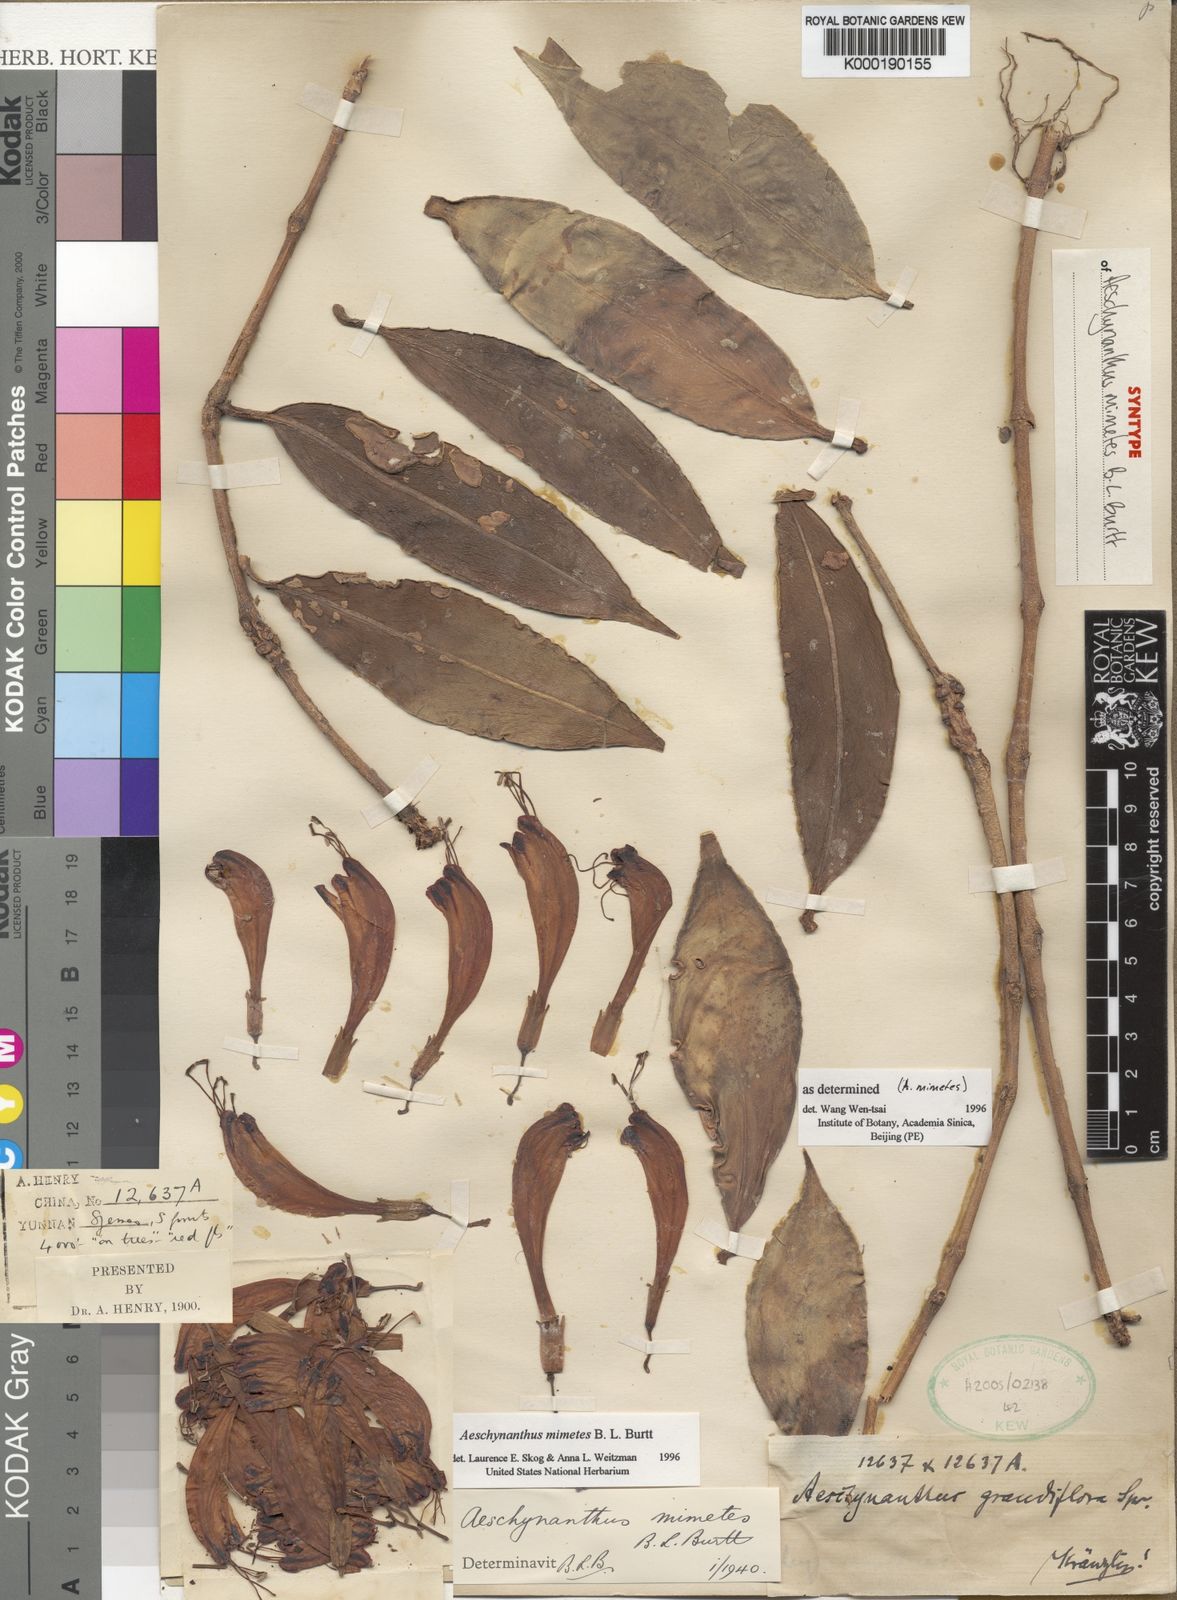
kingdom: Plantae
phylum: Tracheophyta
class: Magnoliopsida
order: Lamiales
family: Gesneriaceae
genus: Aeschynanthus
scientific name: Aeschynanthus parasiticus
